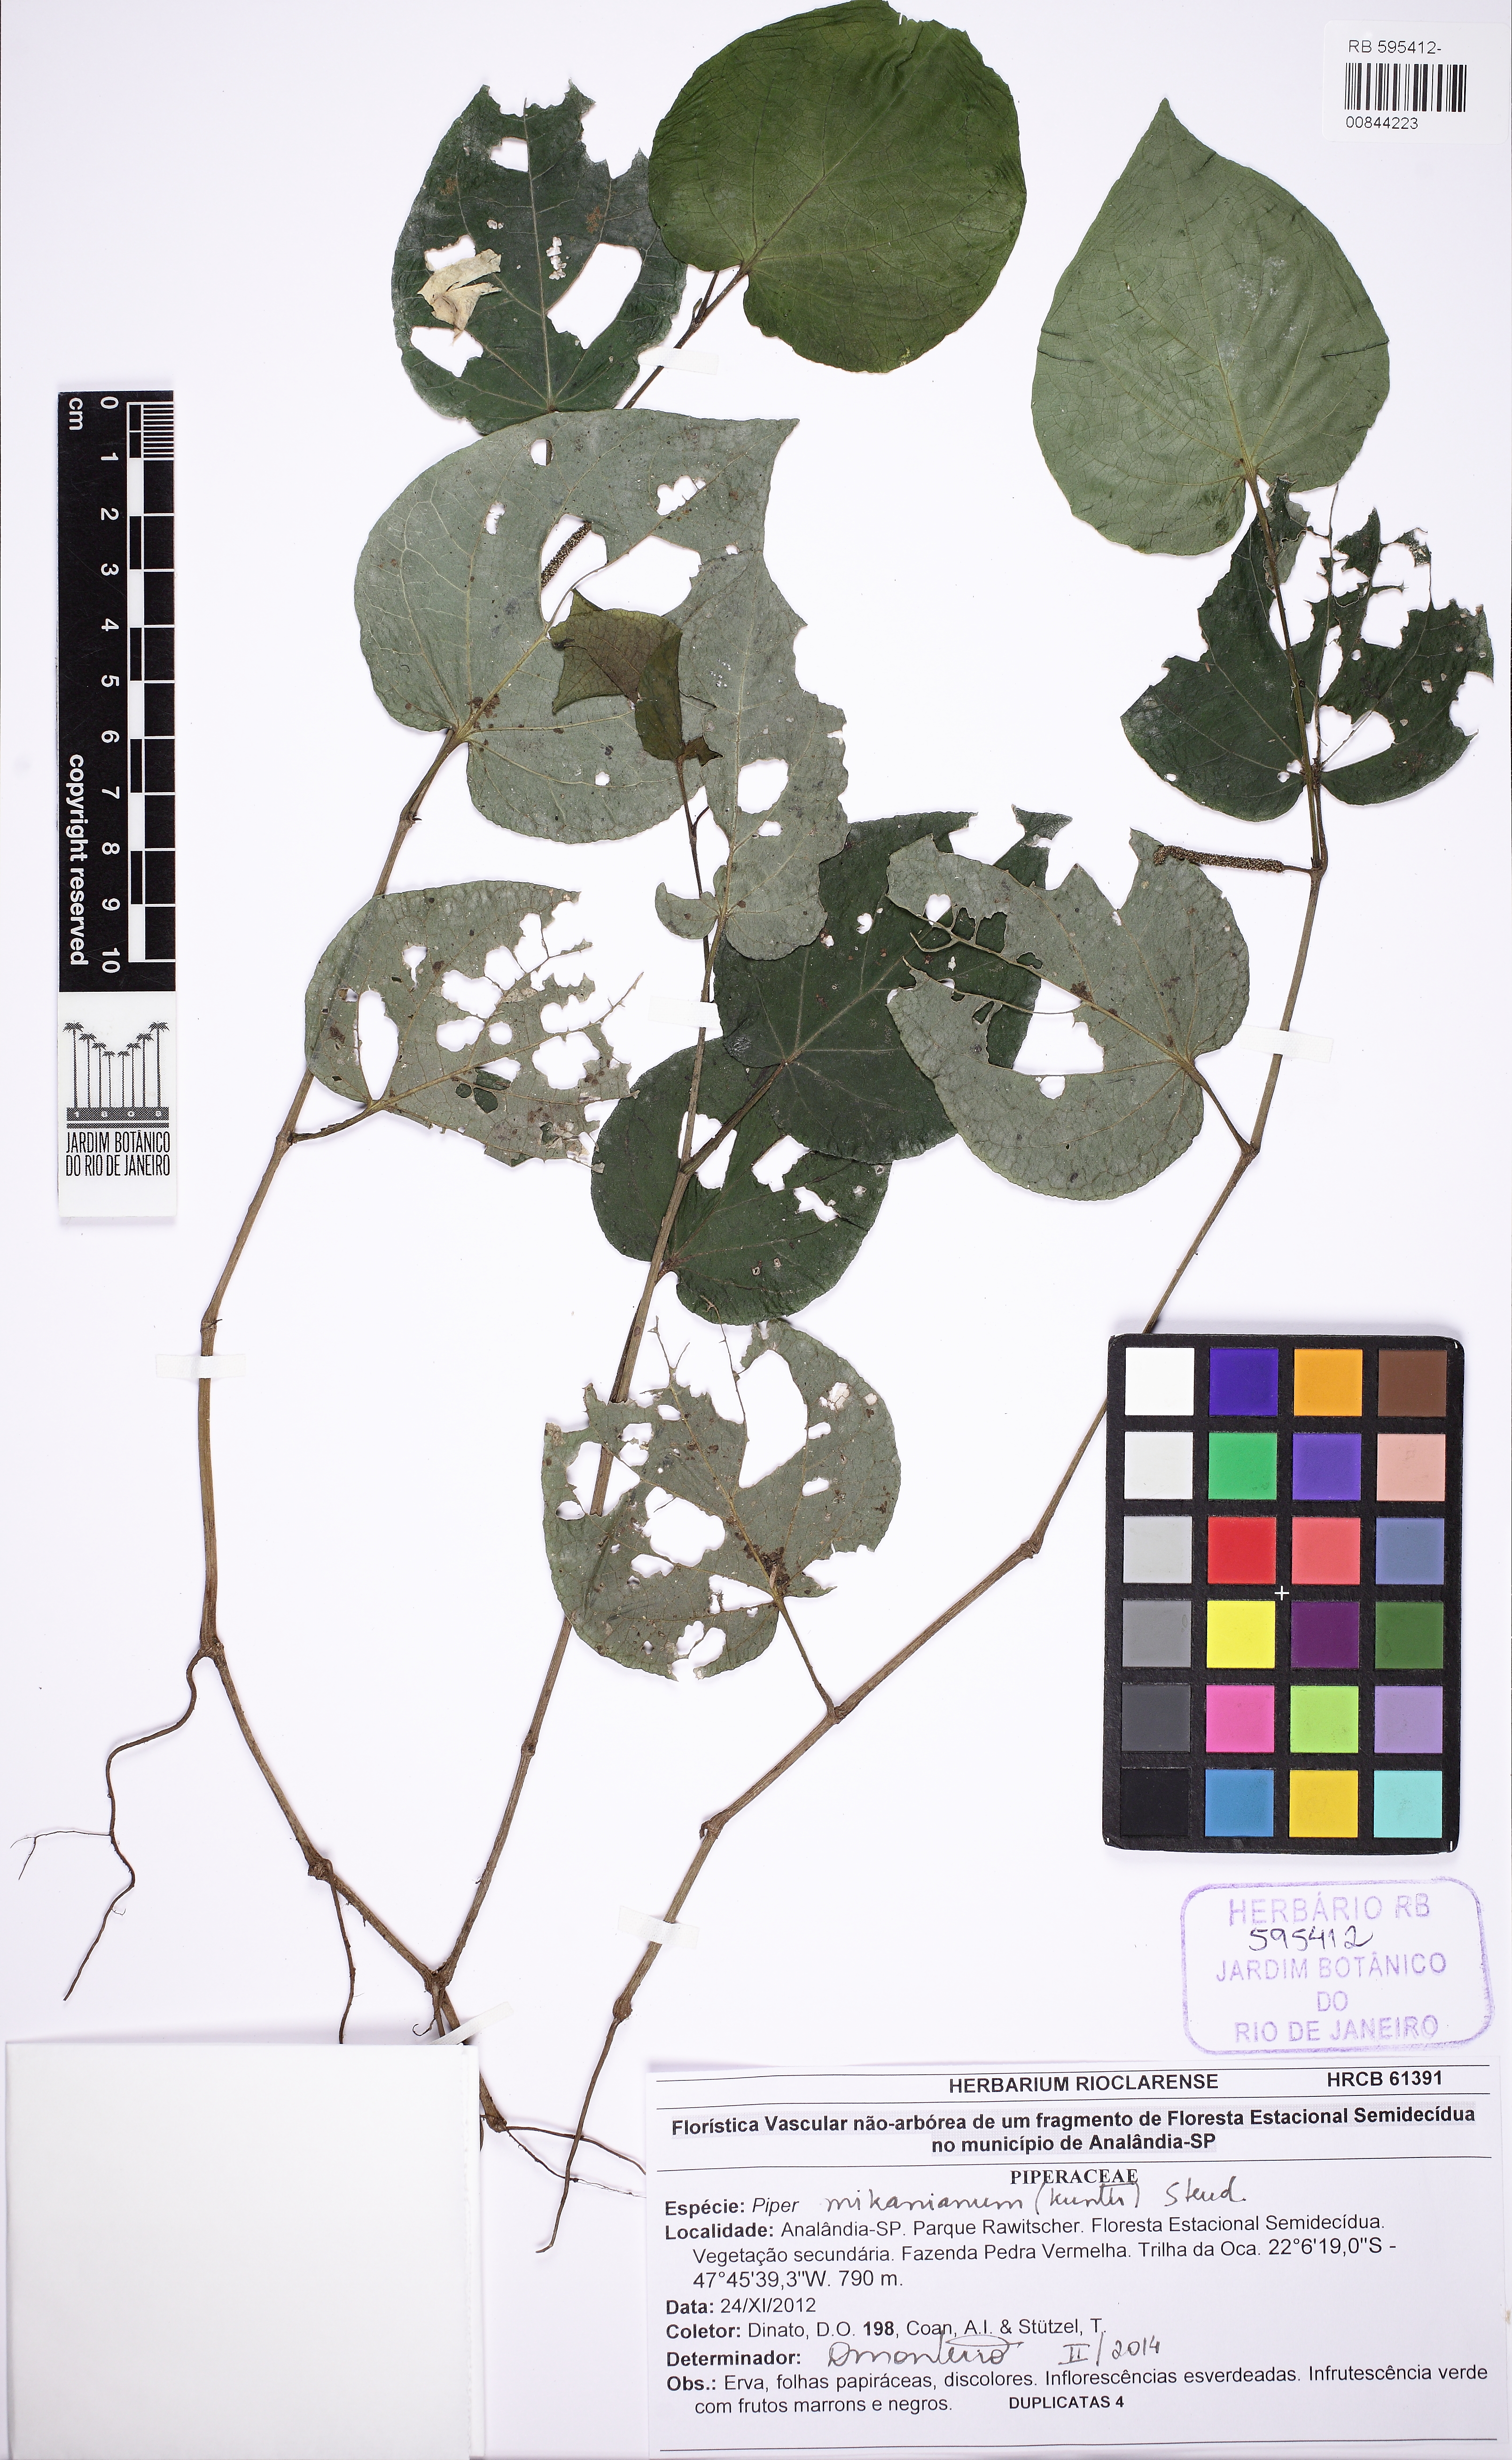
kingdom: Plantae
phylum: Tracheophyta
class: Magnoliopsida
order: Piperales
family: Piperaceae
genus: Piper
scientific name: Piper mikanianum
